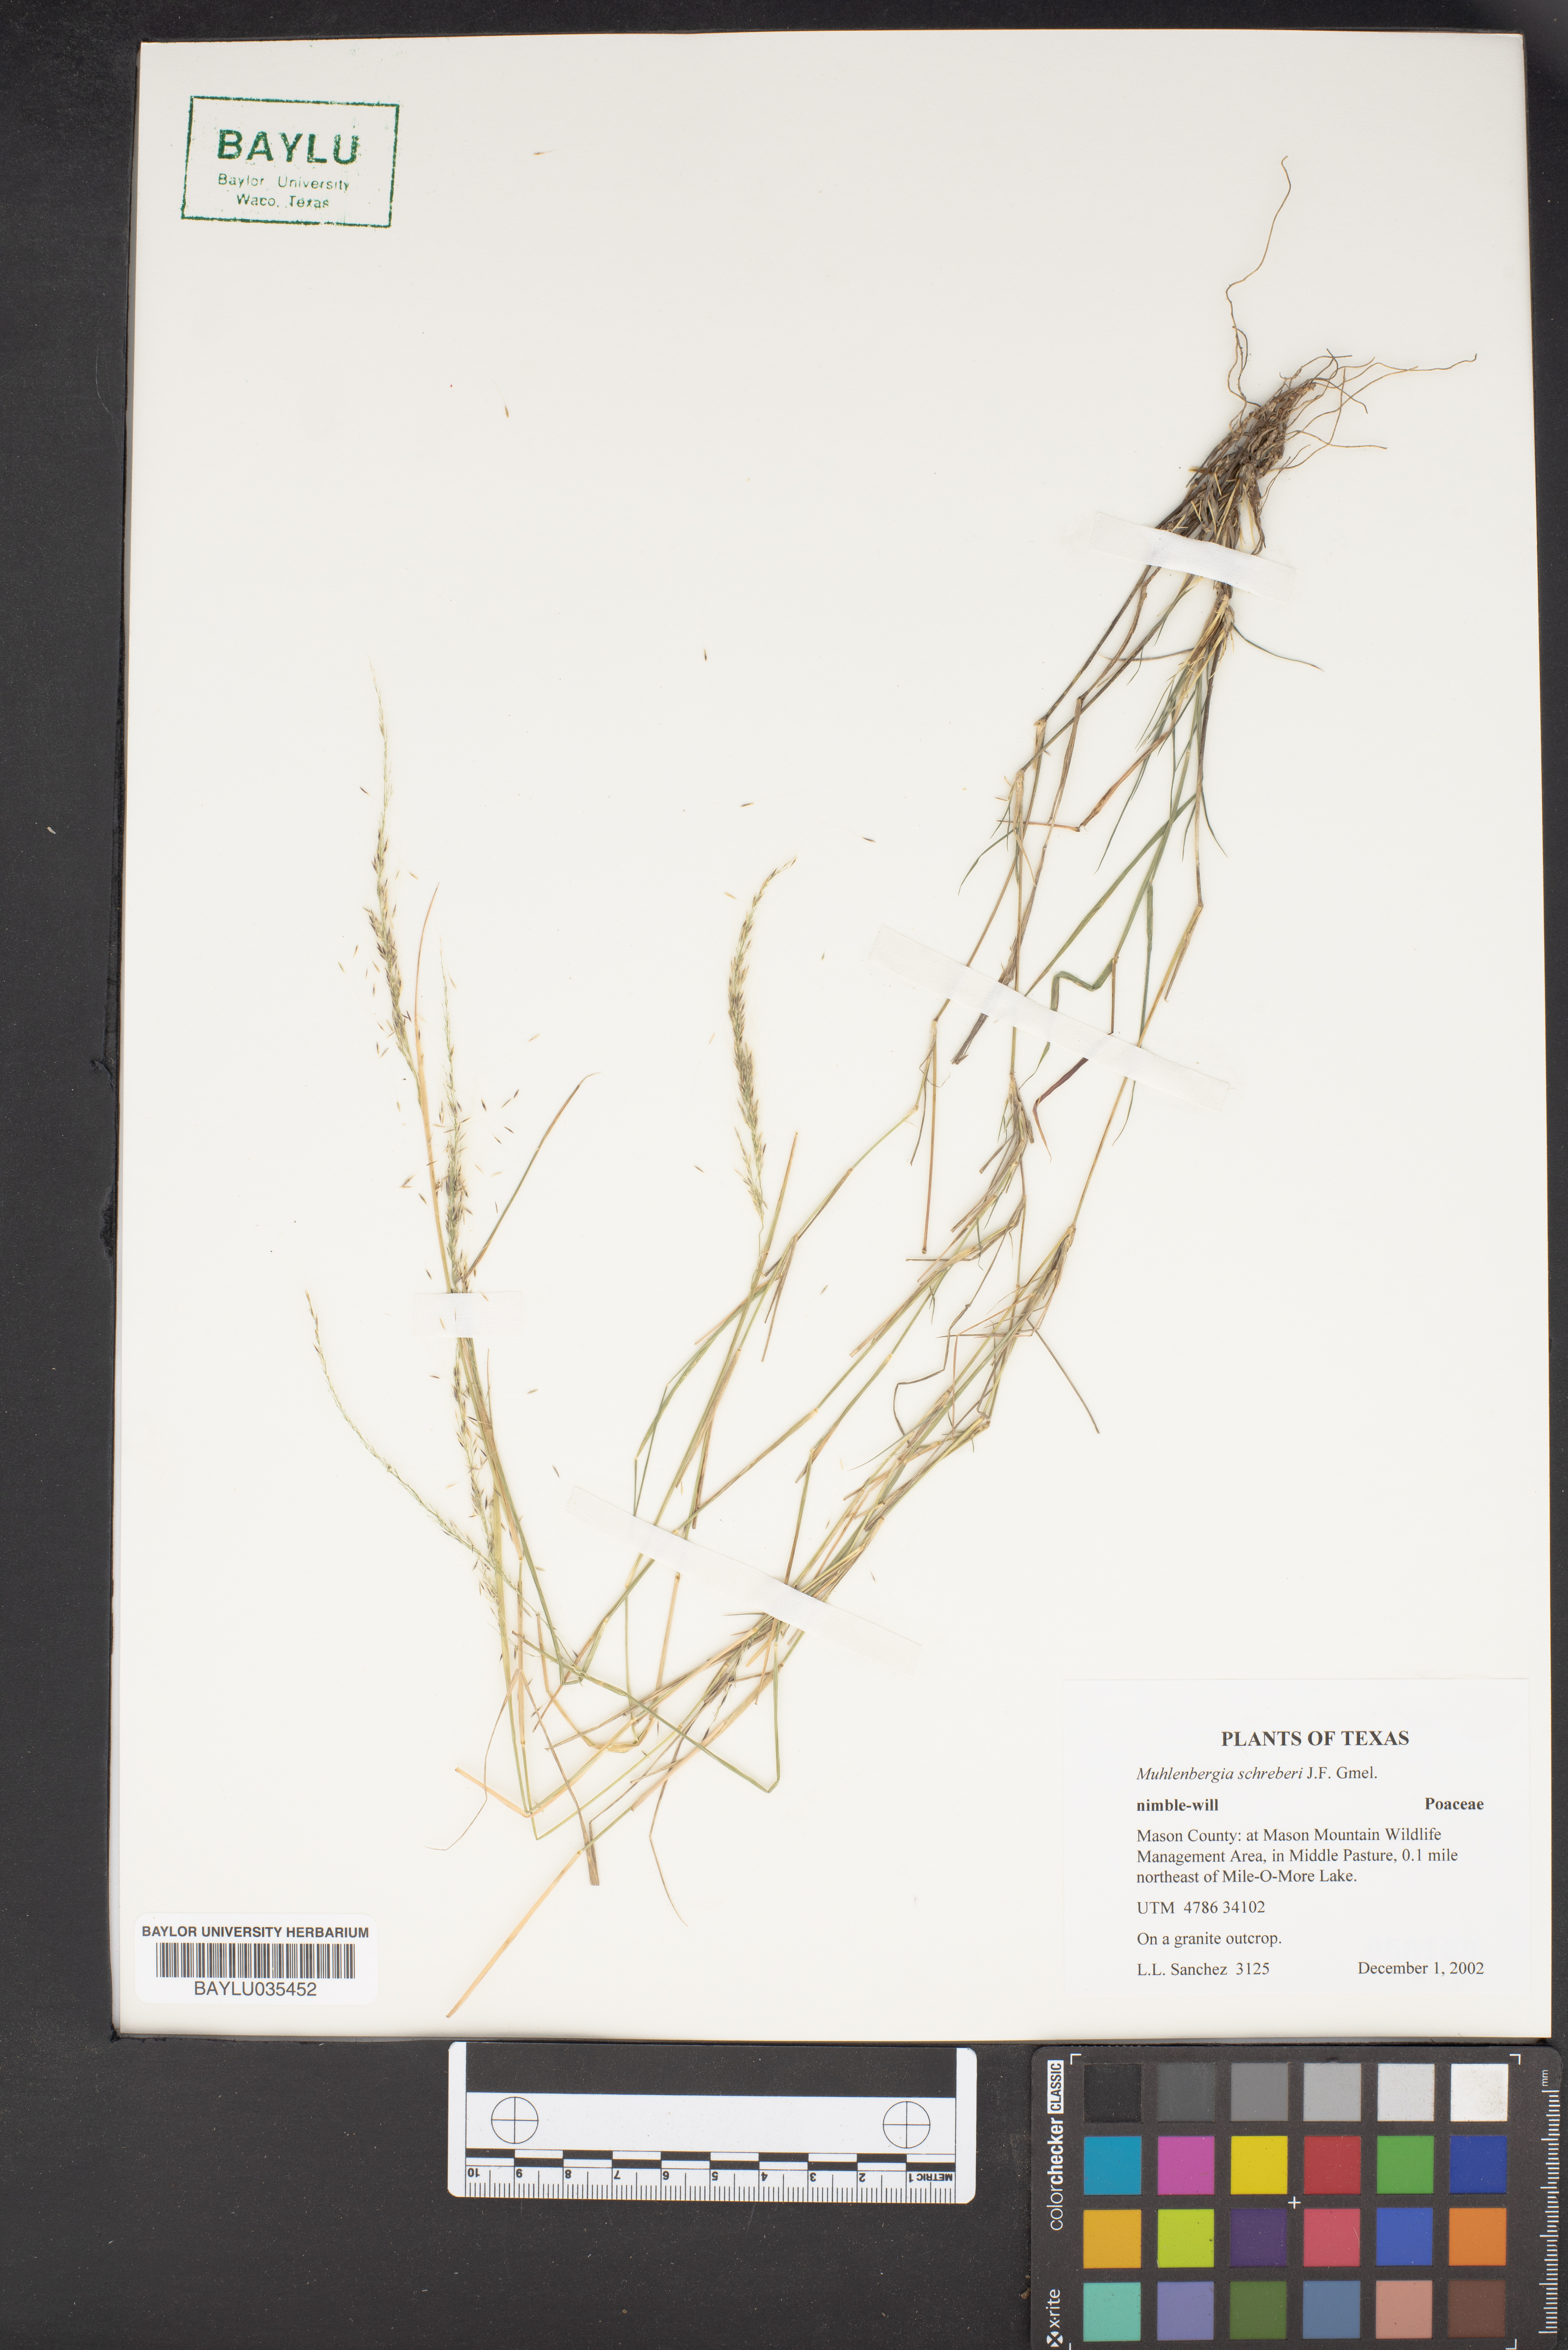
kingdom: Plantae
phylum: Tracheophyta
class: Liliopsida
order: Poales
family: Poaceae
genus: Muhlenbergia
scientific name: Muhlenbergia schreberi
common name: Nimblewill
